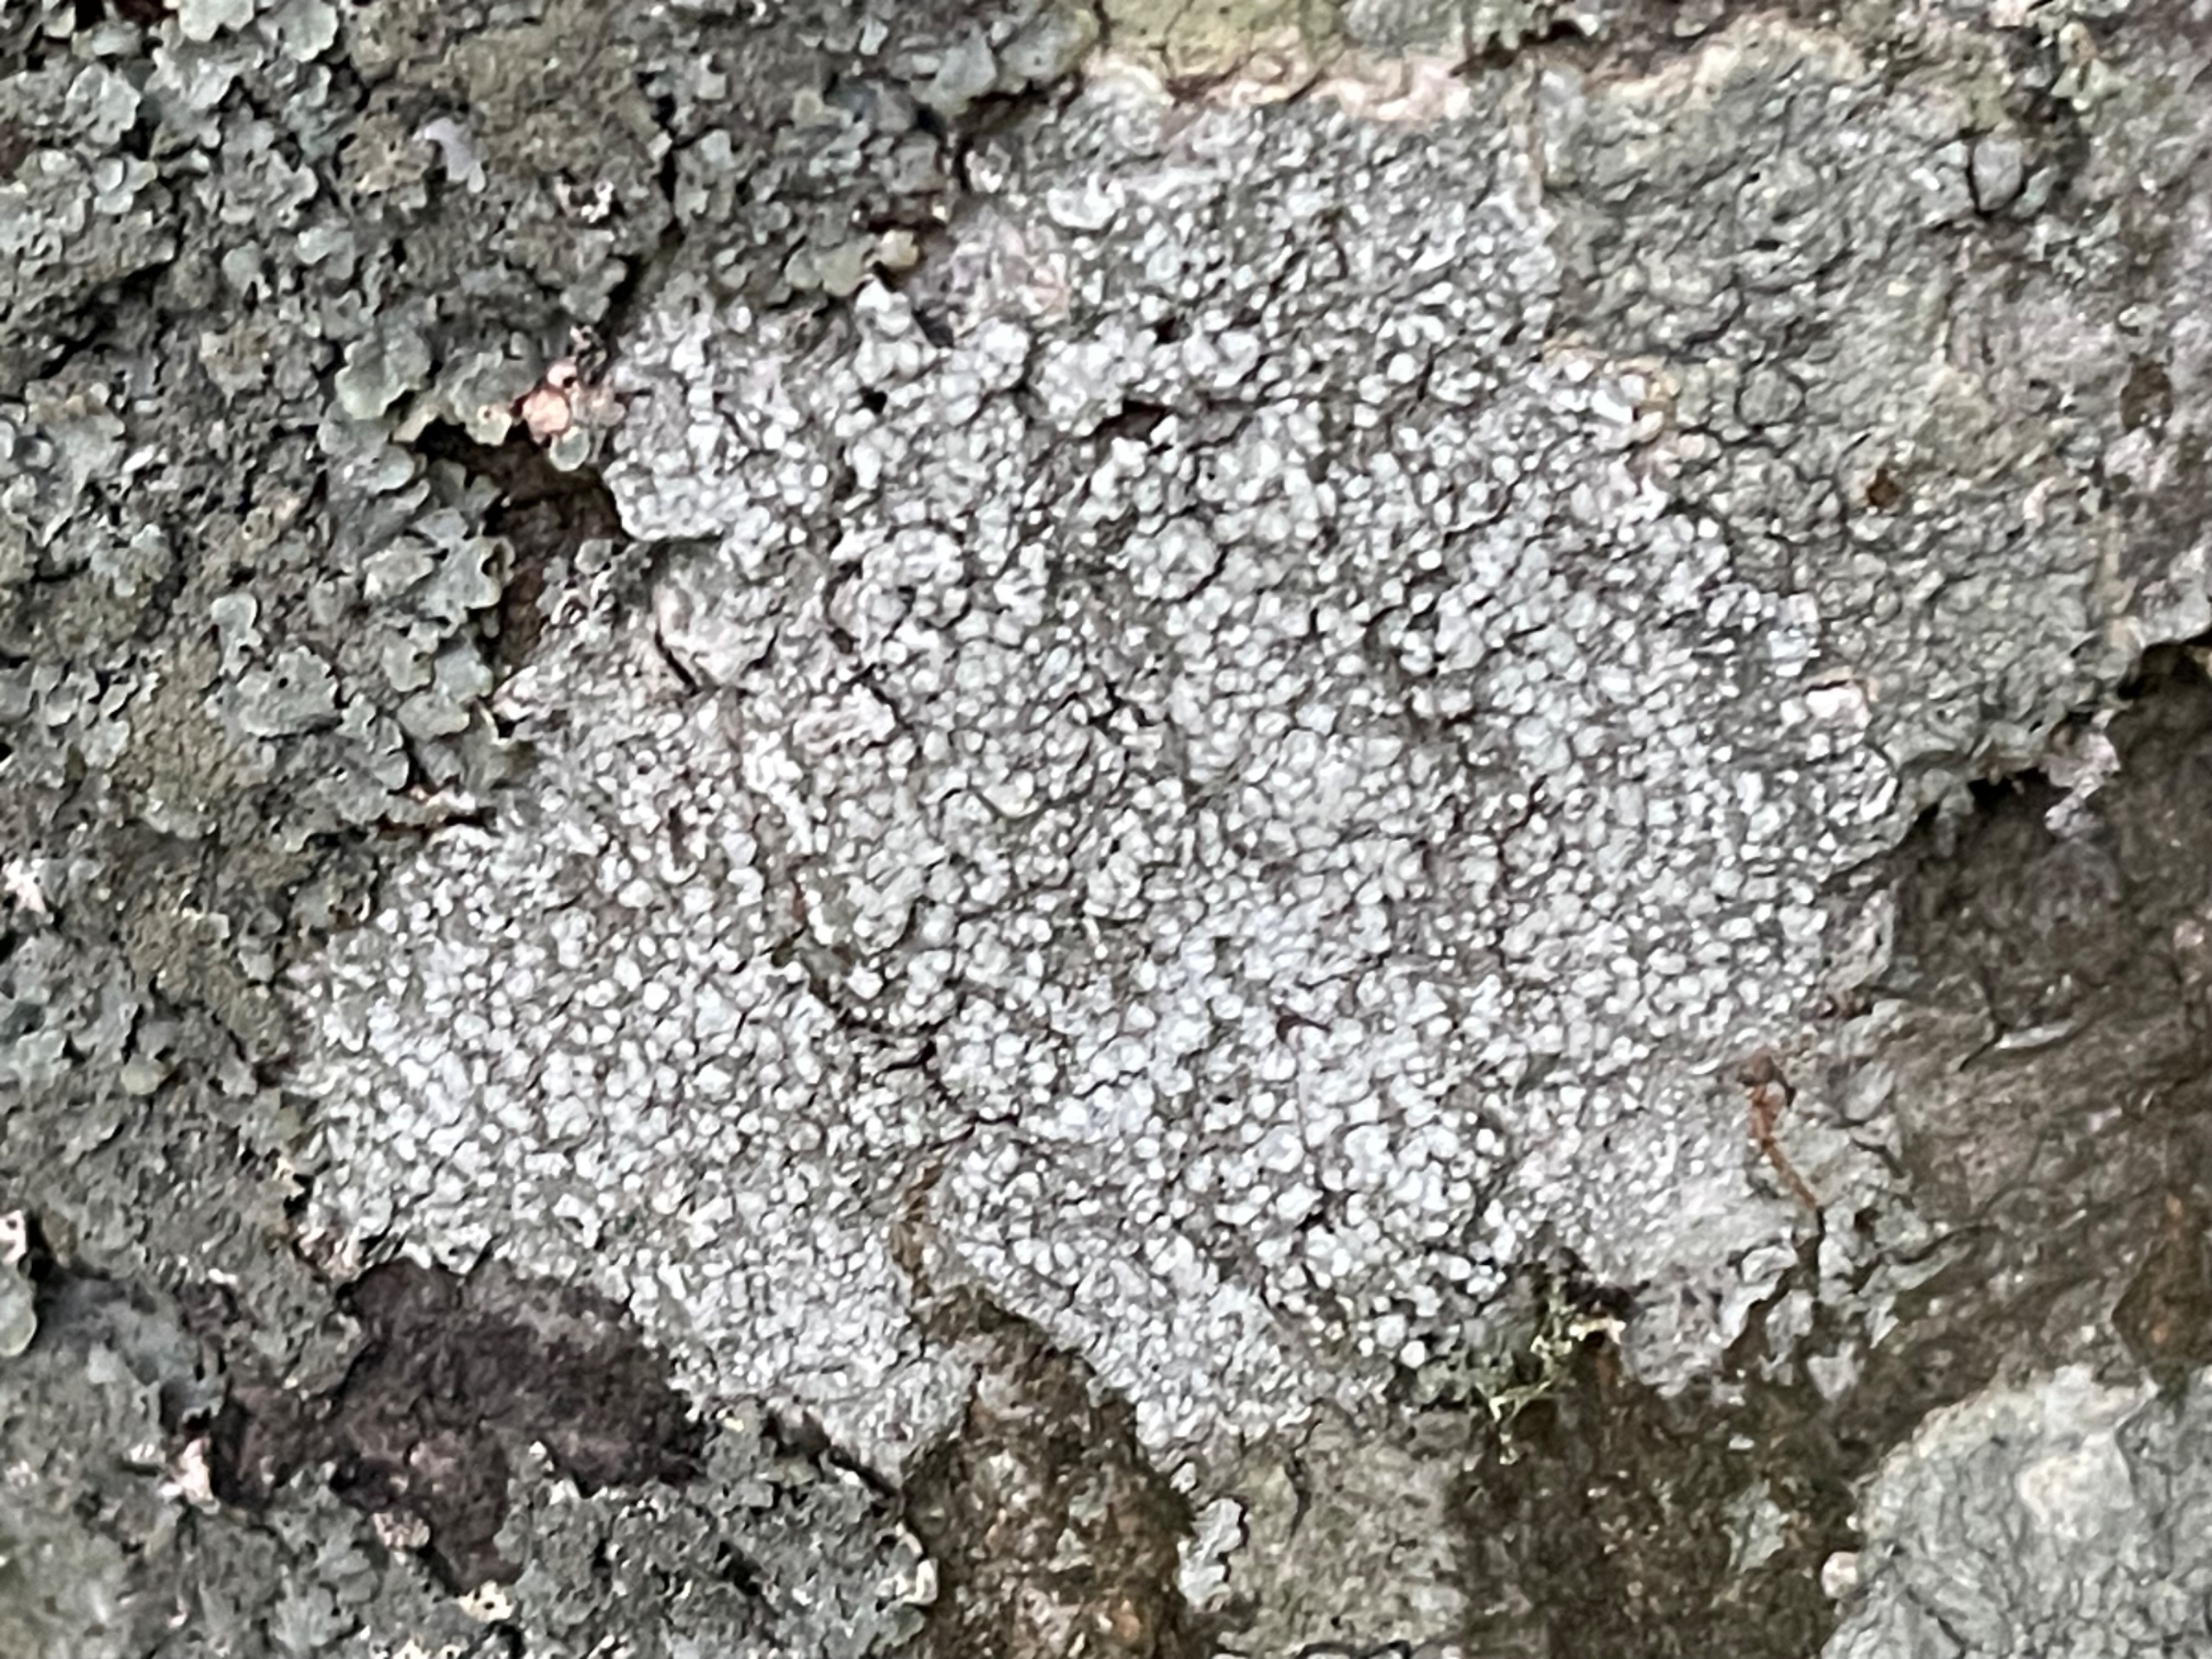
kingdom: Fungi
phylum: Ascomycota
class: Lecanoromycetes
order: Pertusariales
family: Pertusariaceae
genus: Lepra
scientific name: Lepra amara
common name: Bitter prikvortelav
